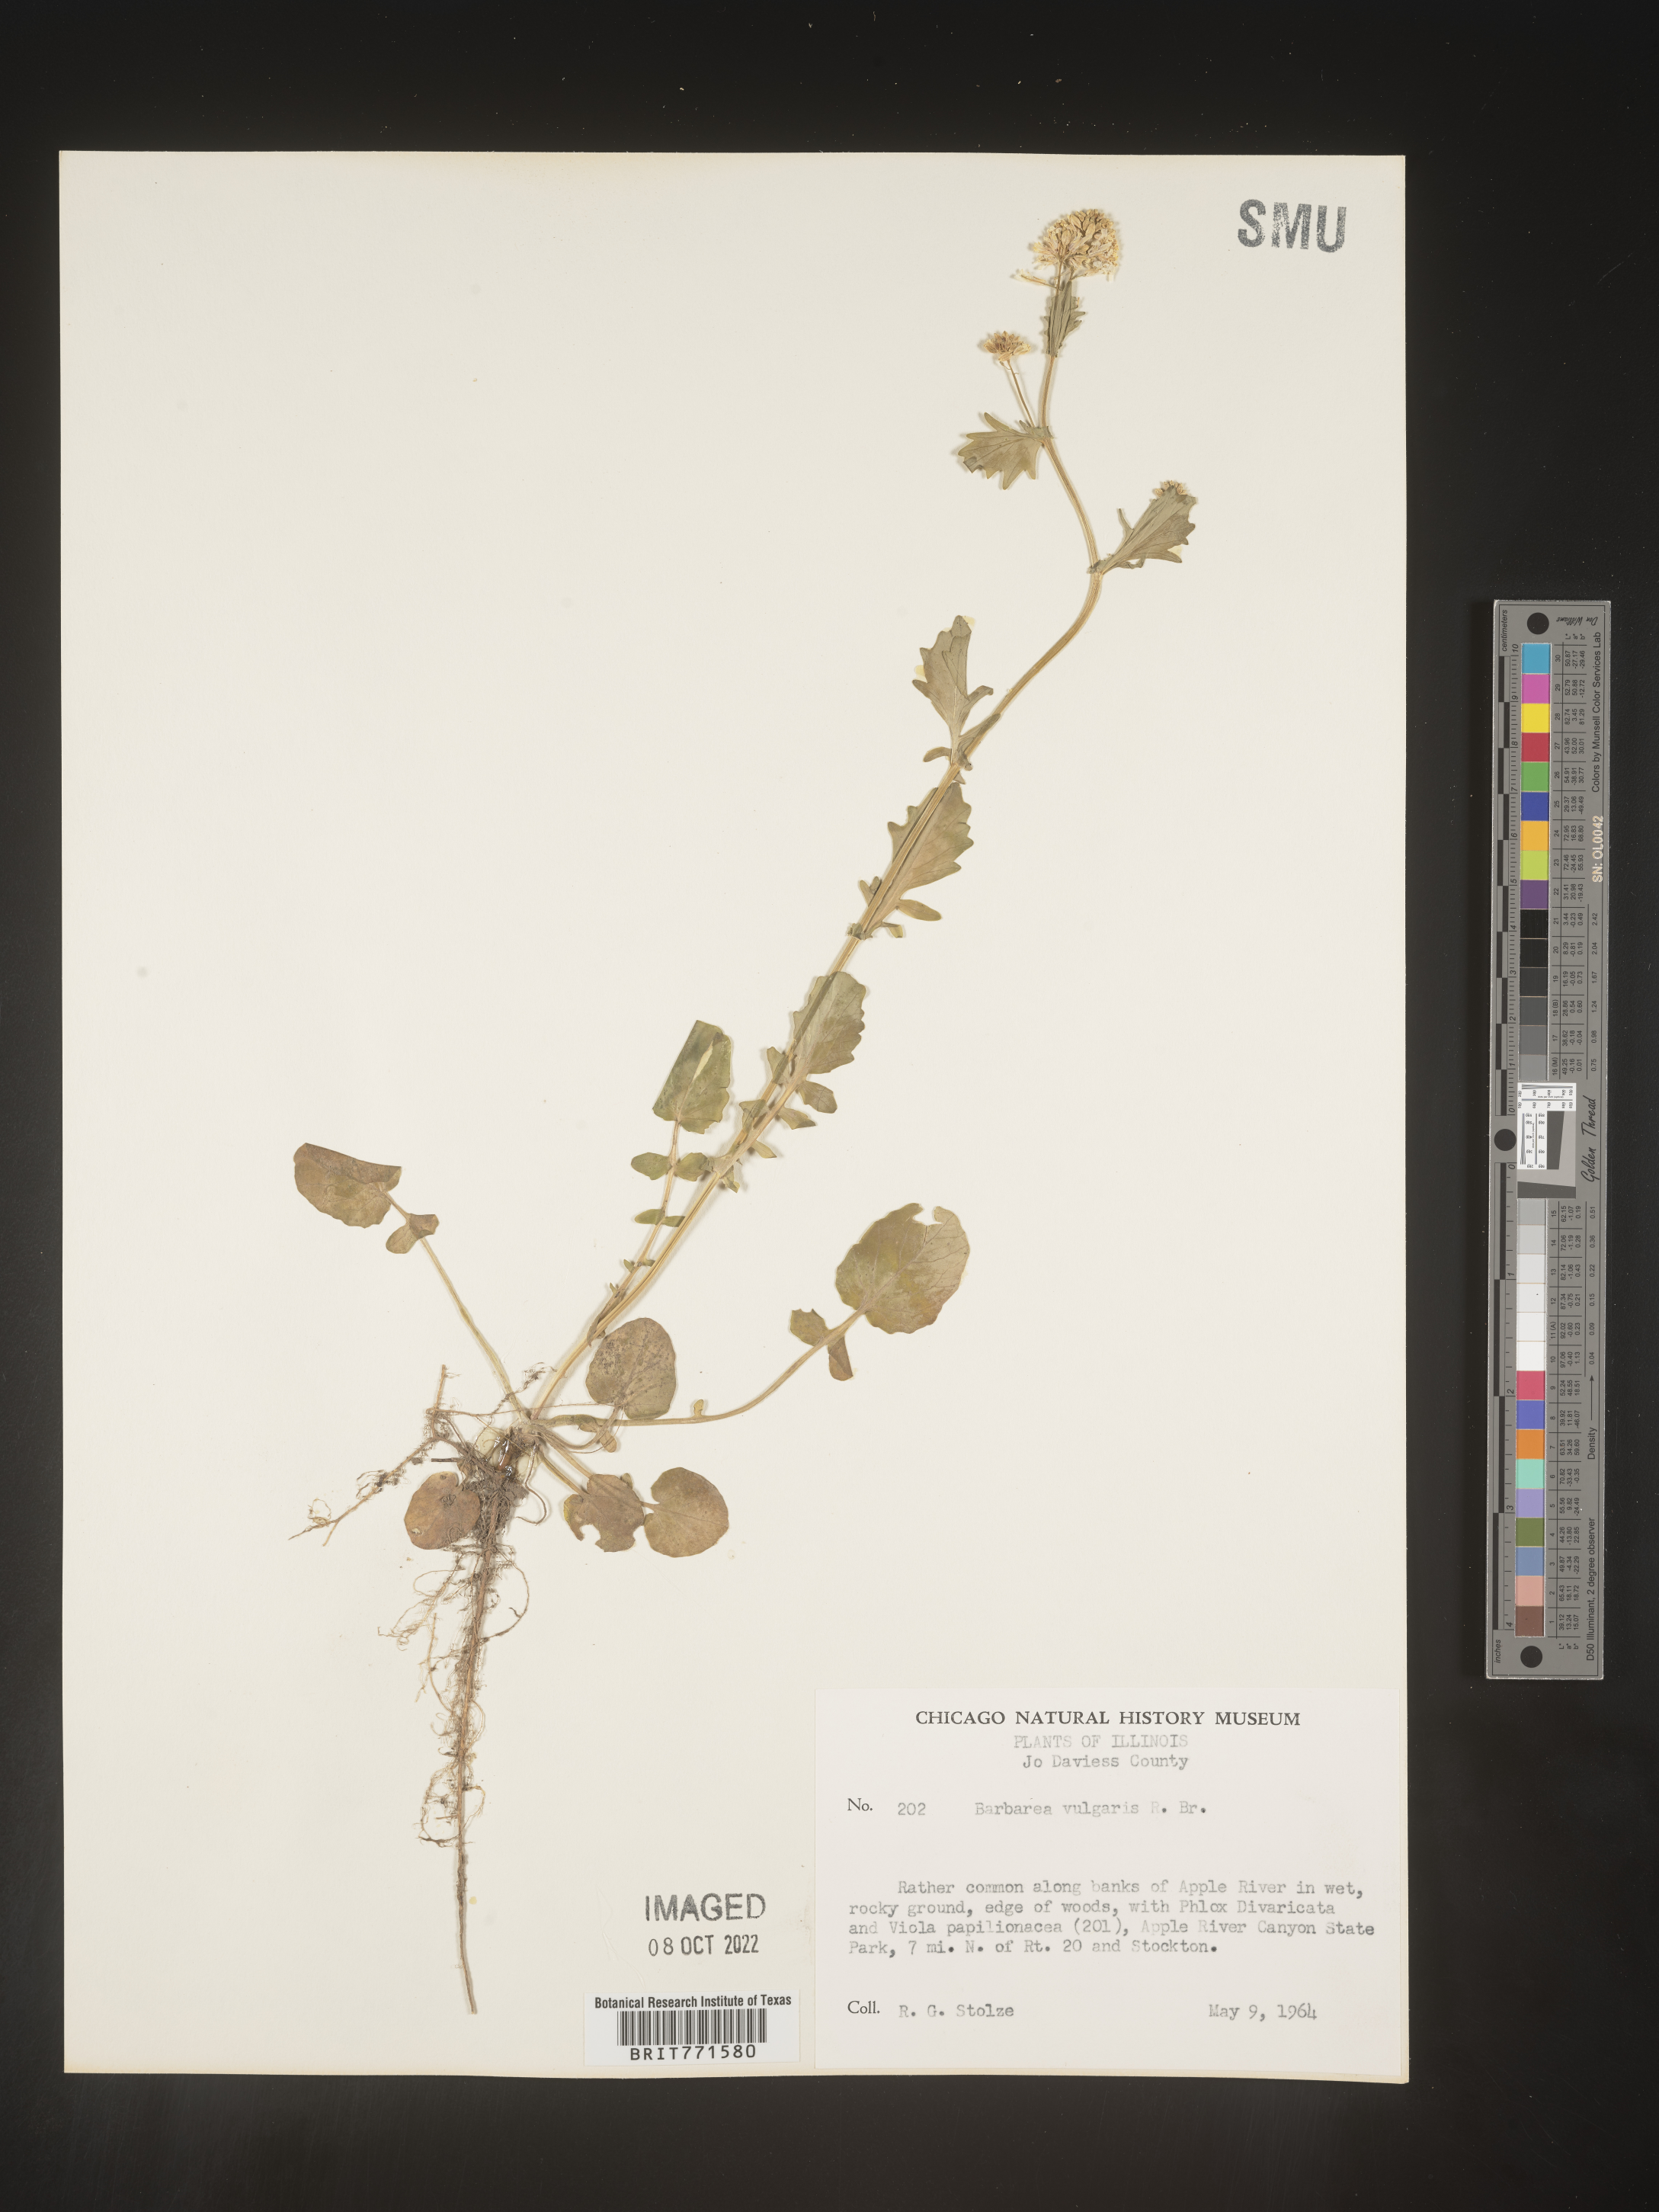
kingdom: Plantae
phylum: Tracheophyta
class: Magnoliopsida
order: Brassicales
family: Brassicaceae
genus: Barbarea
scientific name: Barbarea vulgaris
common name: Cressy-greens
